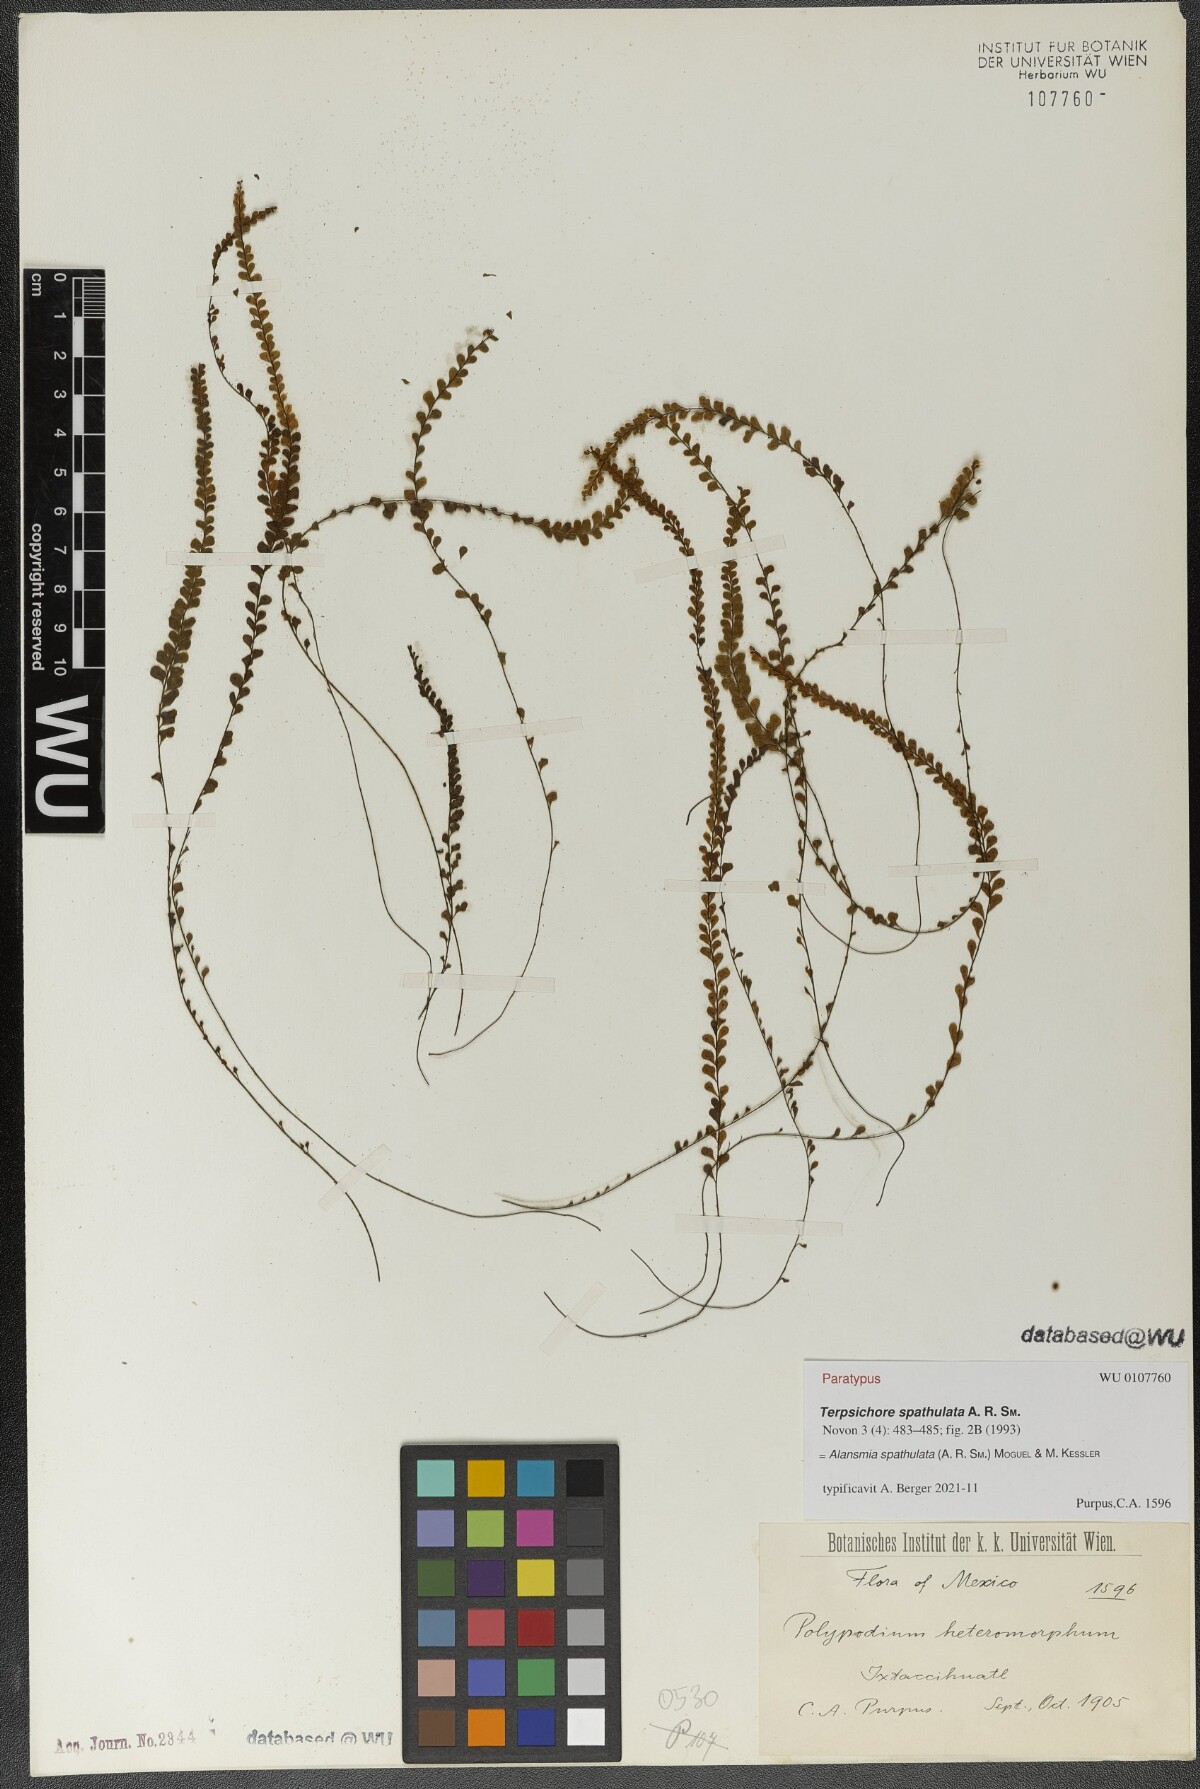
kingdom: Plantae
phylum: Tracheophyta
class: Polypodiopsida
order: Polypodiales
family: Polypodiaceae
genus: Alansmia
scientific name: Alansmia spathulata
